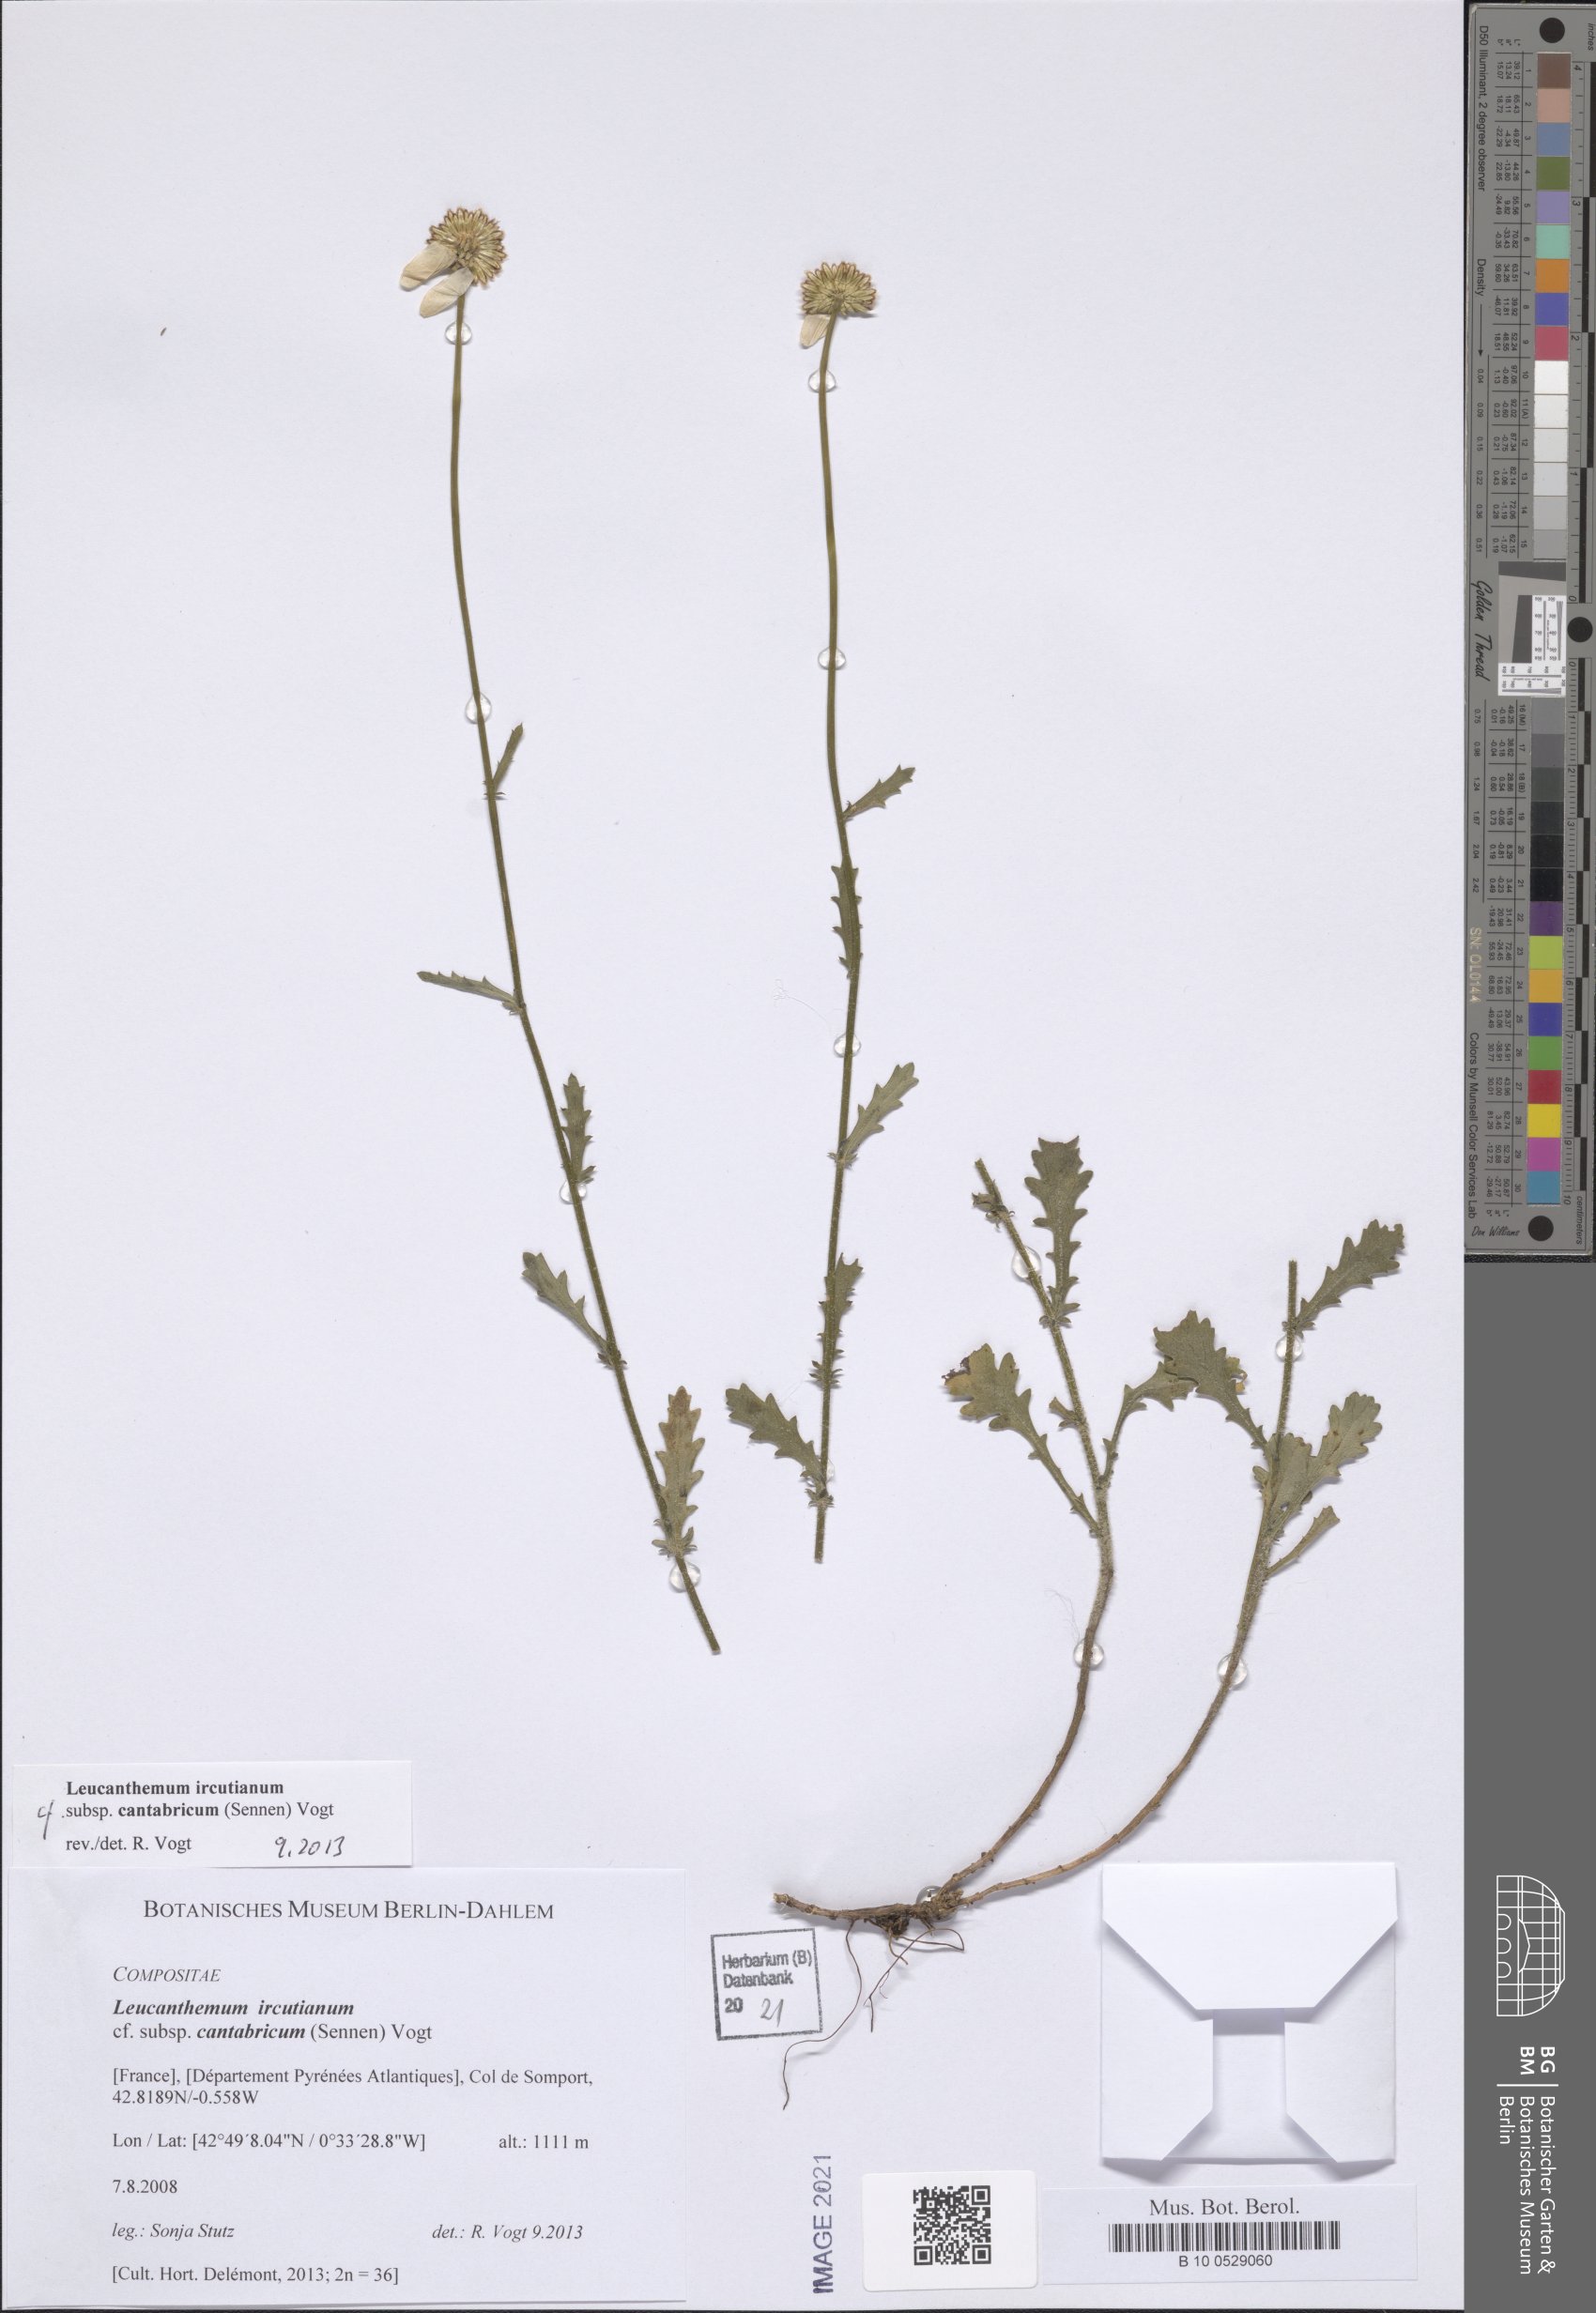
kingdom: Plantae
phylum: Tracheophyta
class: Magnoliopsida
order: Asterales
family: Asteraceae
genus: Leucanthemum
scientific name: Leucanthemum cantabricum
